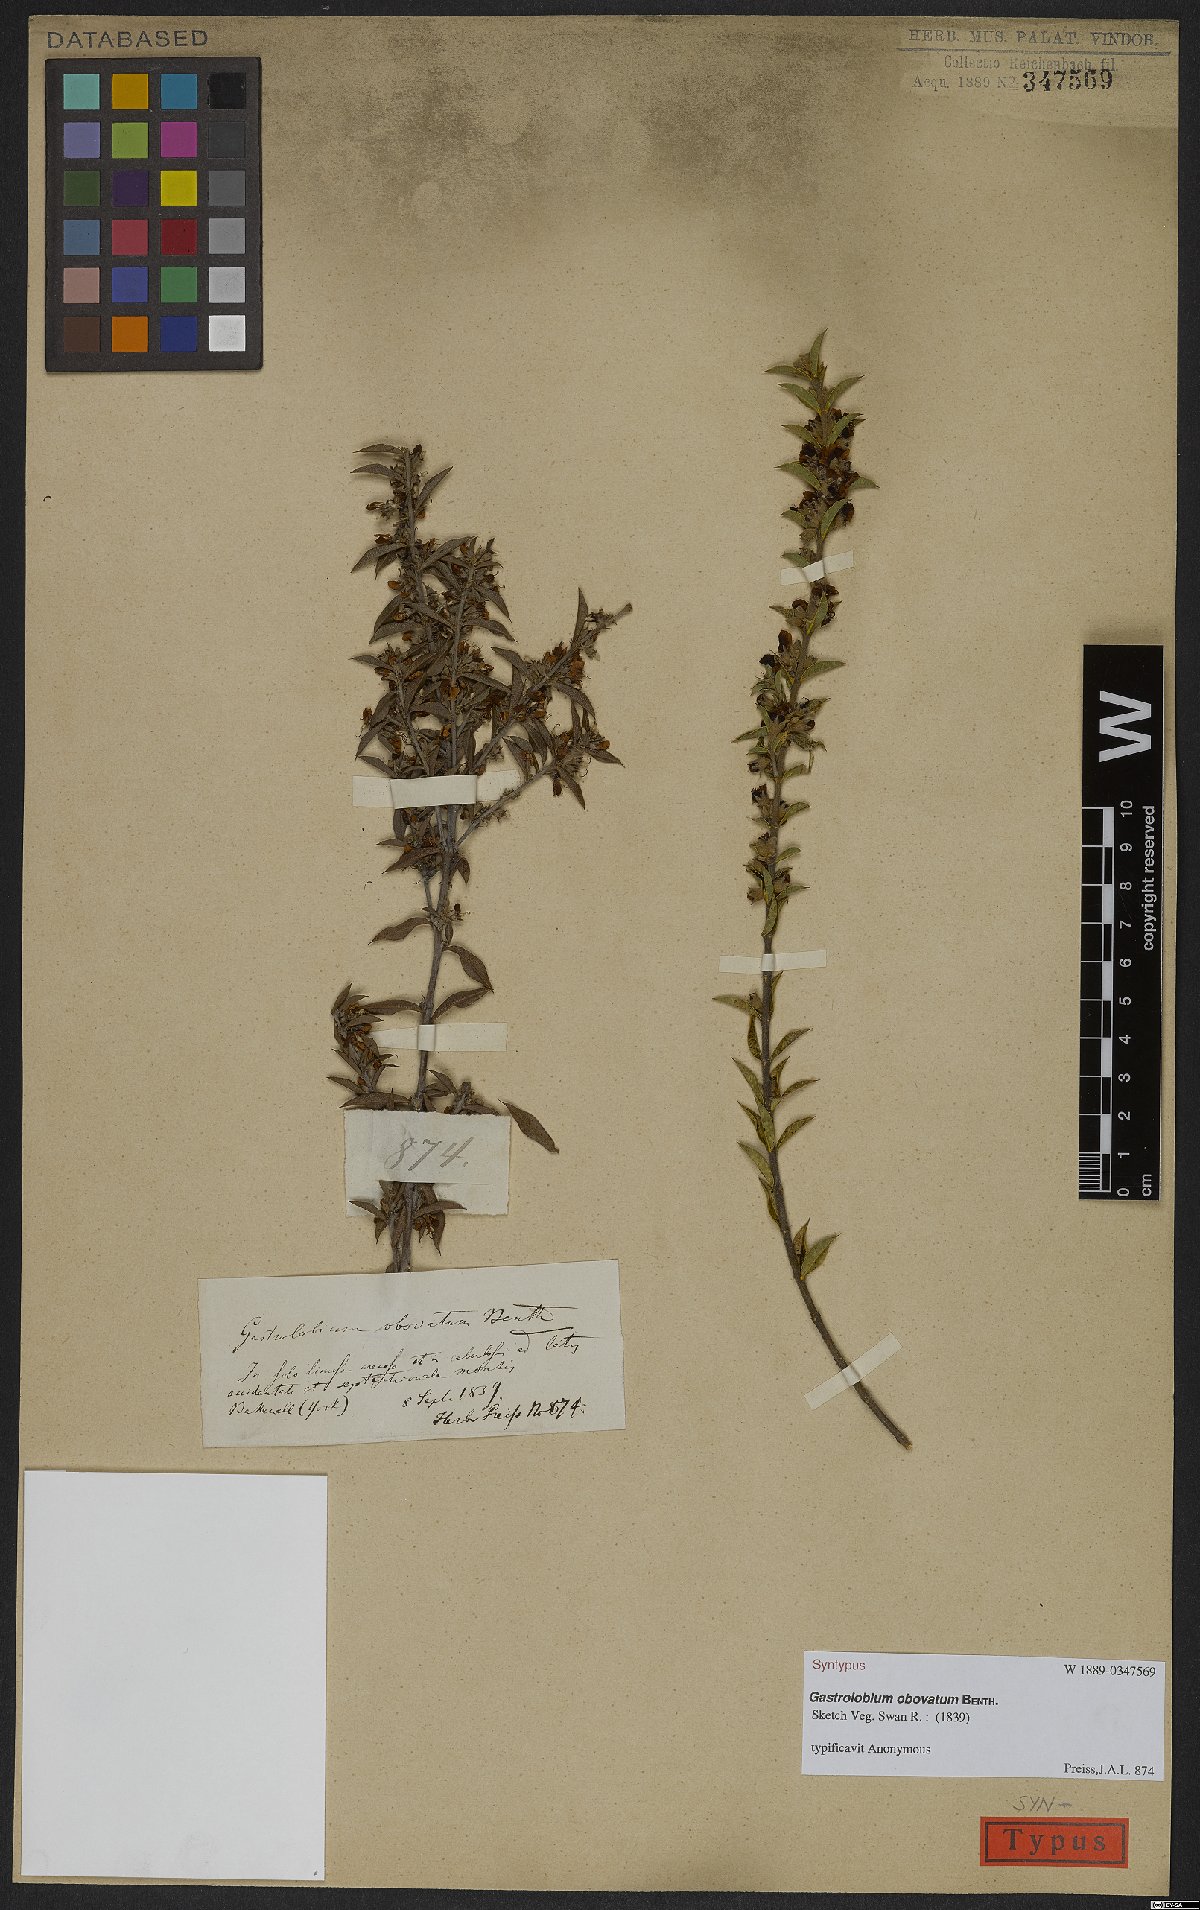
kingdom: Plantae
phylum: Tracheophyta
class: Magnoliopsida
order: Fabales
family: Fabaceae
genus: Gastrolobium
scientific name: Gastrolobium obovatum
